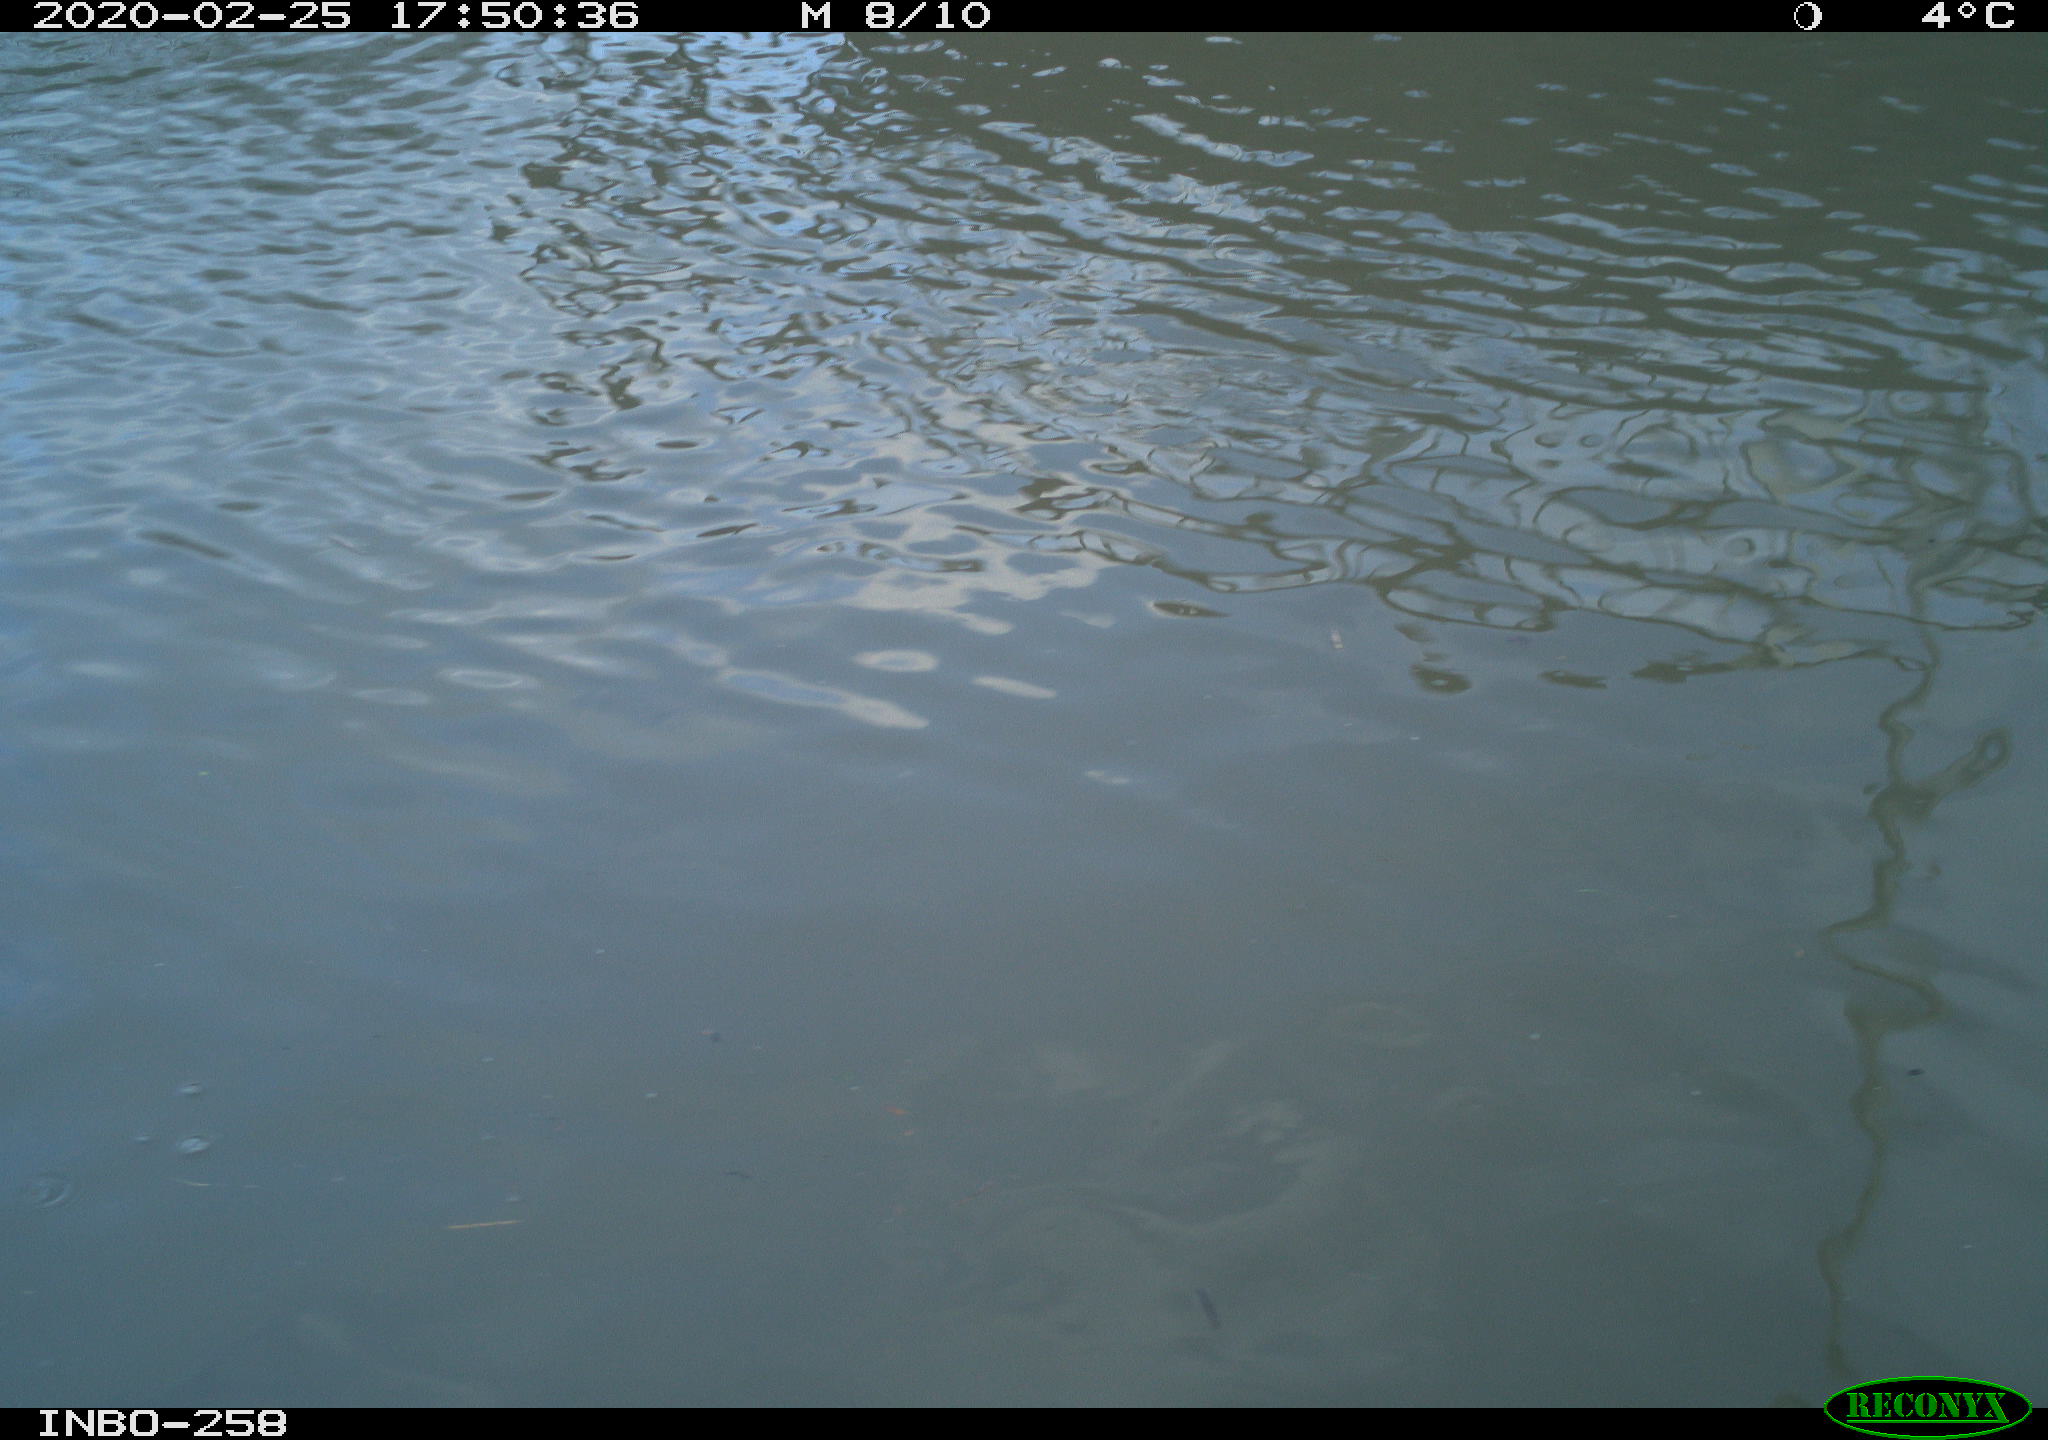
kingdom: Animalia
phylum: Chordata
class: Aves
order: Gruiformes
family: Rallidae
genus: Gallinula
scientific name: Gallinula chloropus
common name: Common moorhen
